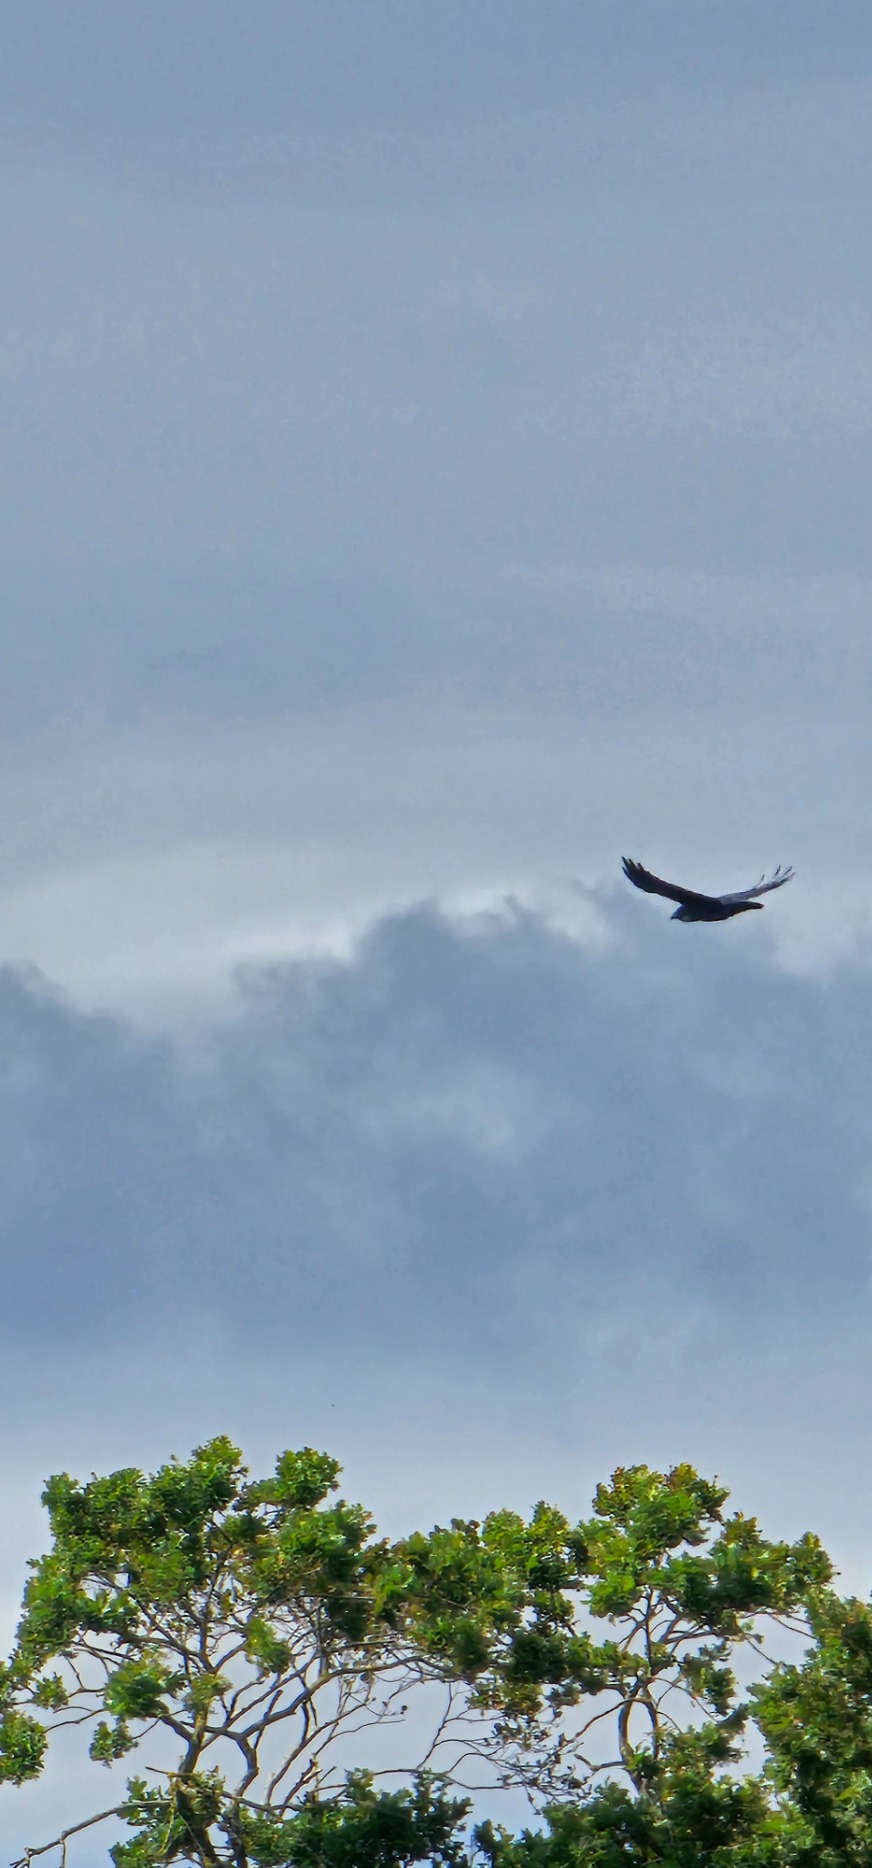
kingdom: Animalia
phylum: Chordata
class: Aves
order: Passeriformes
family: Corvidae
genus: Corvus
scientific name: Corvus corax
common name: Ravn
